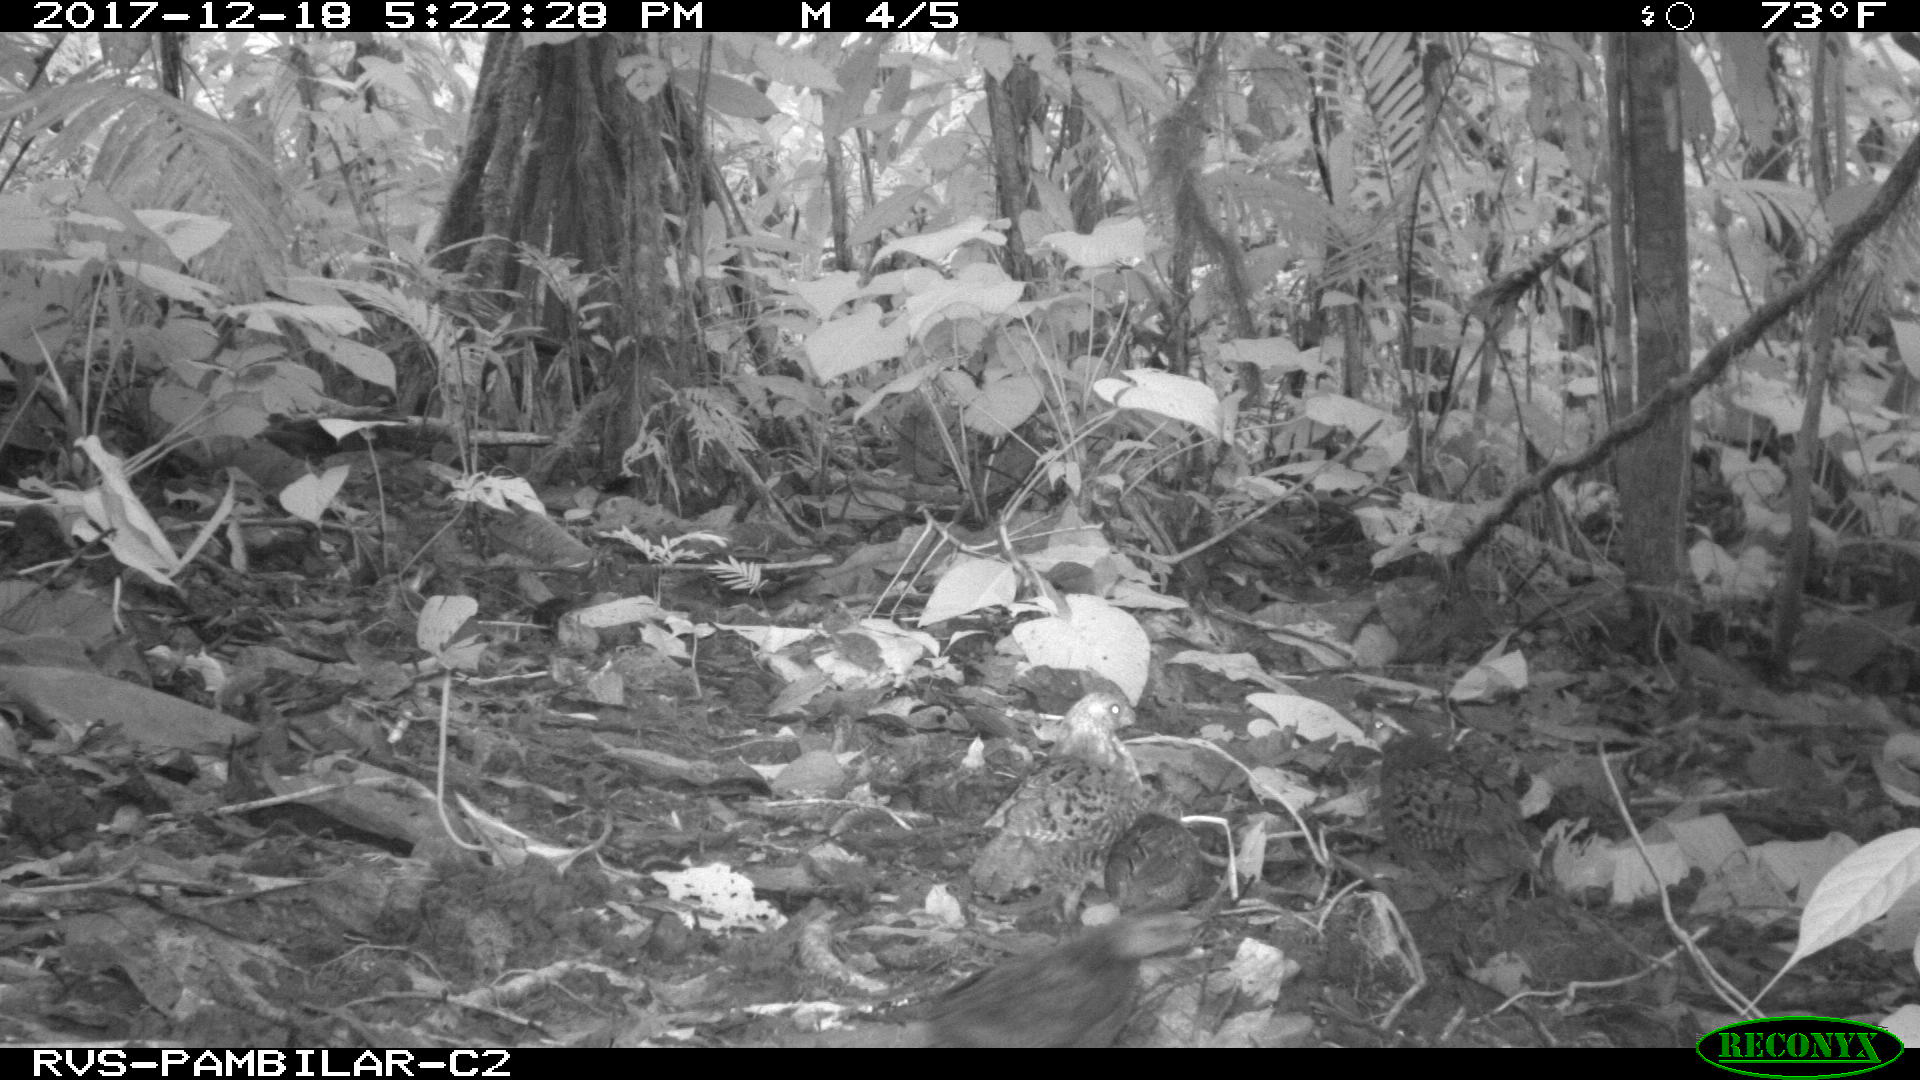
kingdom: Animalia
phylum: Chordata
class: Aves
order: Galliformes
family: Odontophoridae
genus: Odontophorus
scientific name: Odontophorus erythrops
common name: Rufous-fronted wood quail
